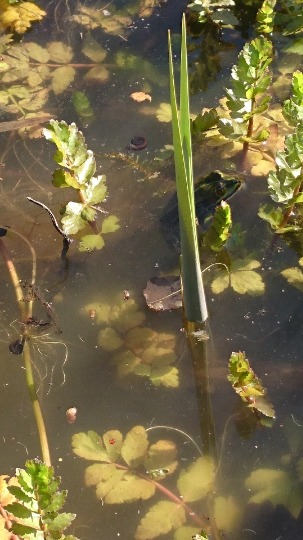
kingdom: Animalia
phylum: Chordata
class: Amphibia
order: Anura
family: Ranidae
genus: Pelophylax
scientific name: Pelophylax lessonae
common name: Grøn frø
